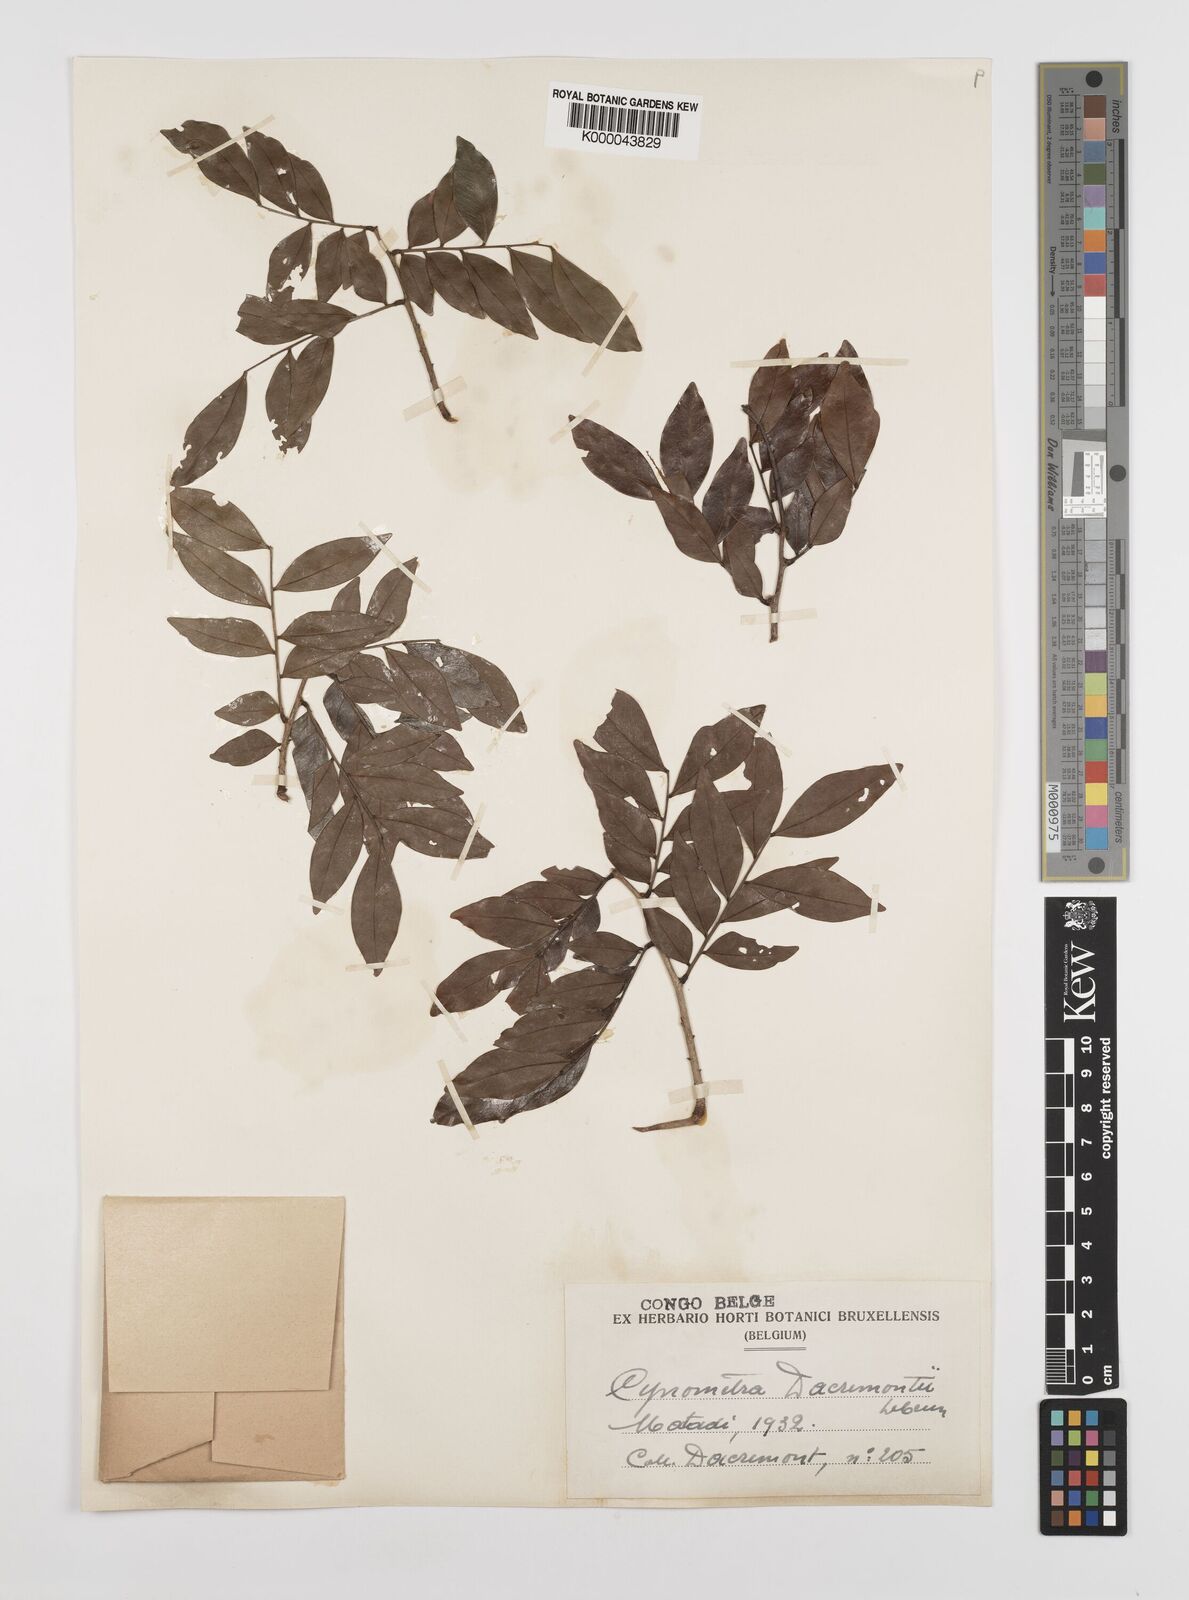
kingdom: Plantae
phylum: Tracheophyta
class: Magnoliopsida
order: Fabales
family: Fabaceae
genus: Guibourtia
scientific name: Guibourtia
